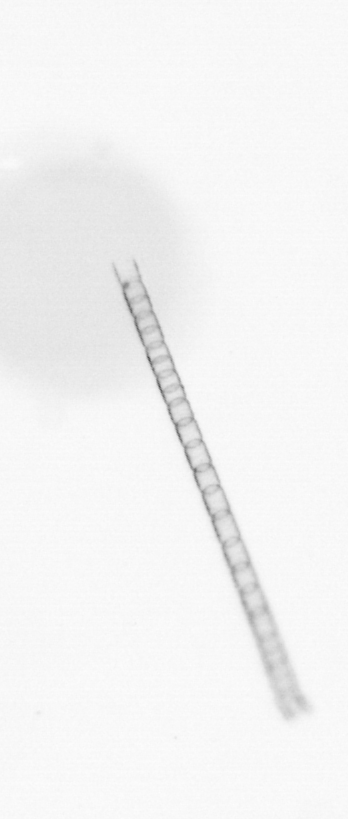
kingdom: Chromista
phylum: Ochrophyta
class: Bacillariophyceae
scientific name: Bacillariophyceae
